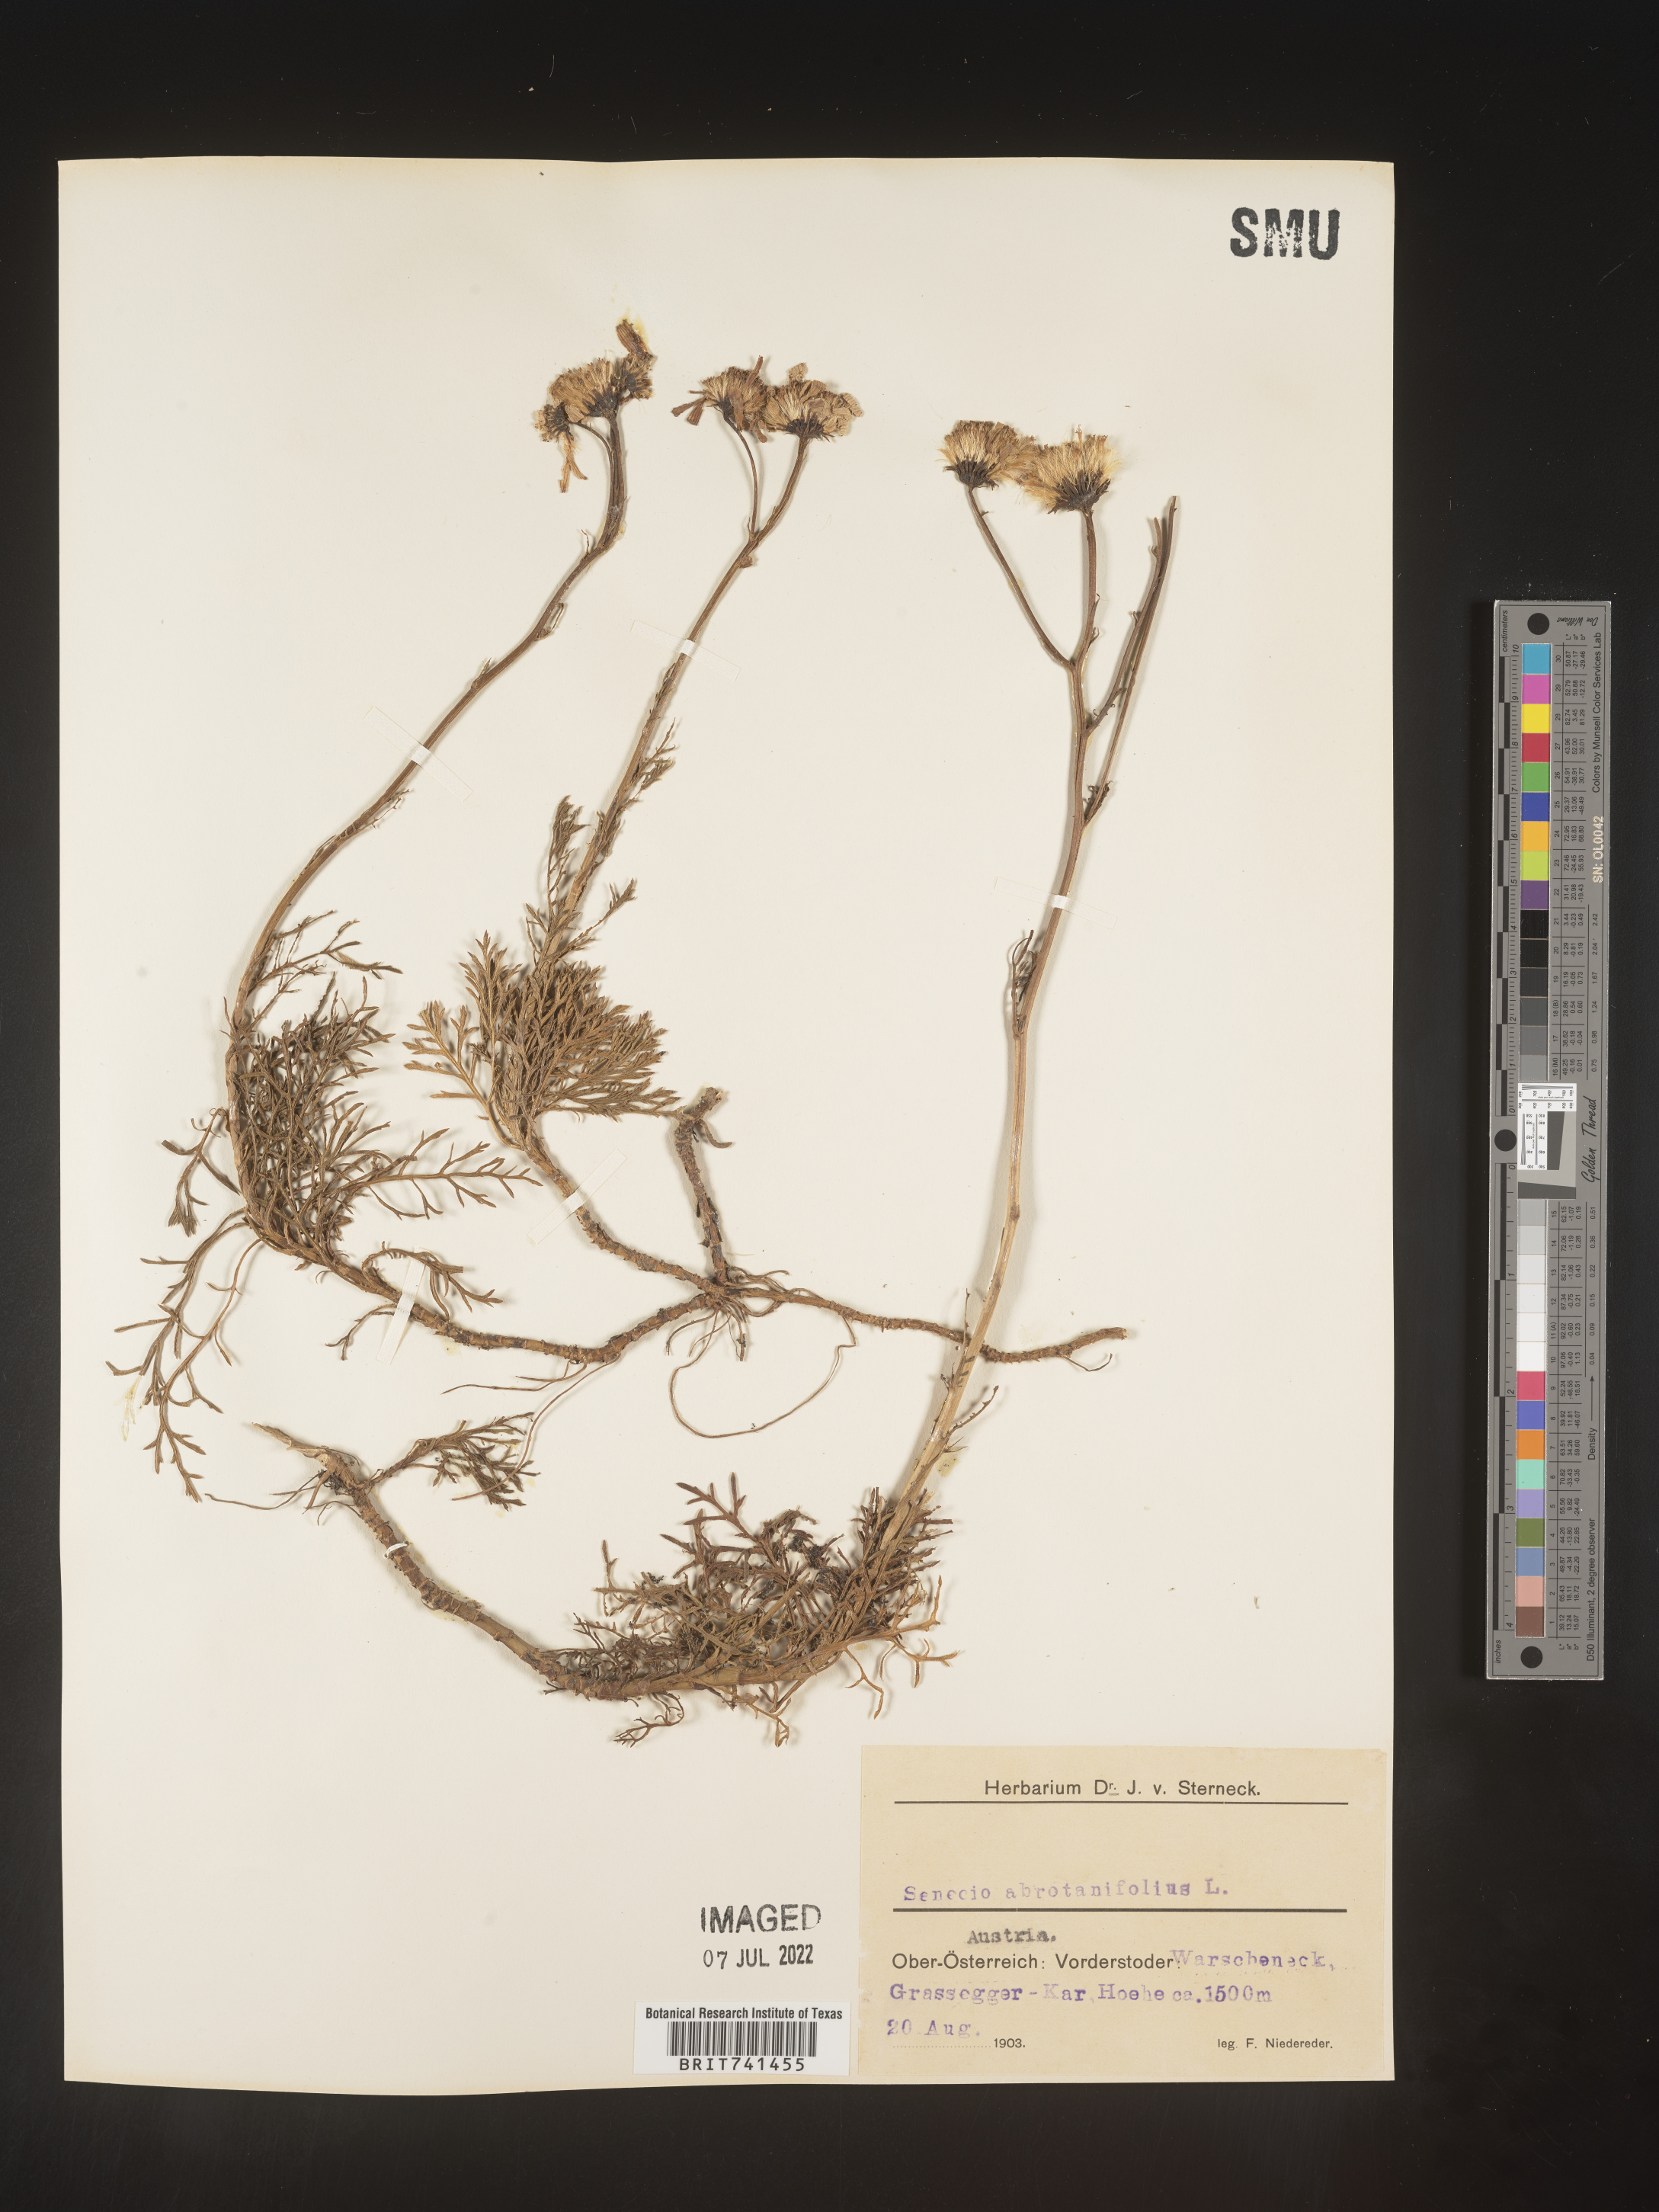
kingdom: Plantae
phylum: Tracheophyta
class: Magnoliopsida
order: Asterales
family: Asteraceae
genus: Senecio
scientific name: Senecio
